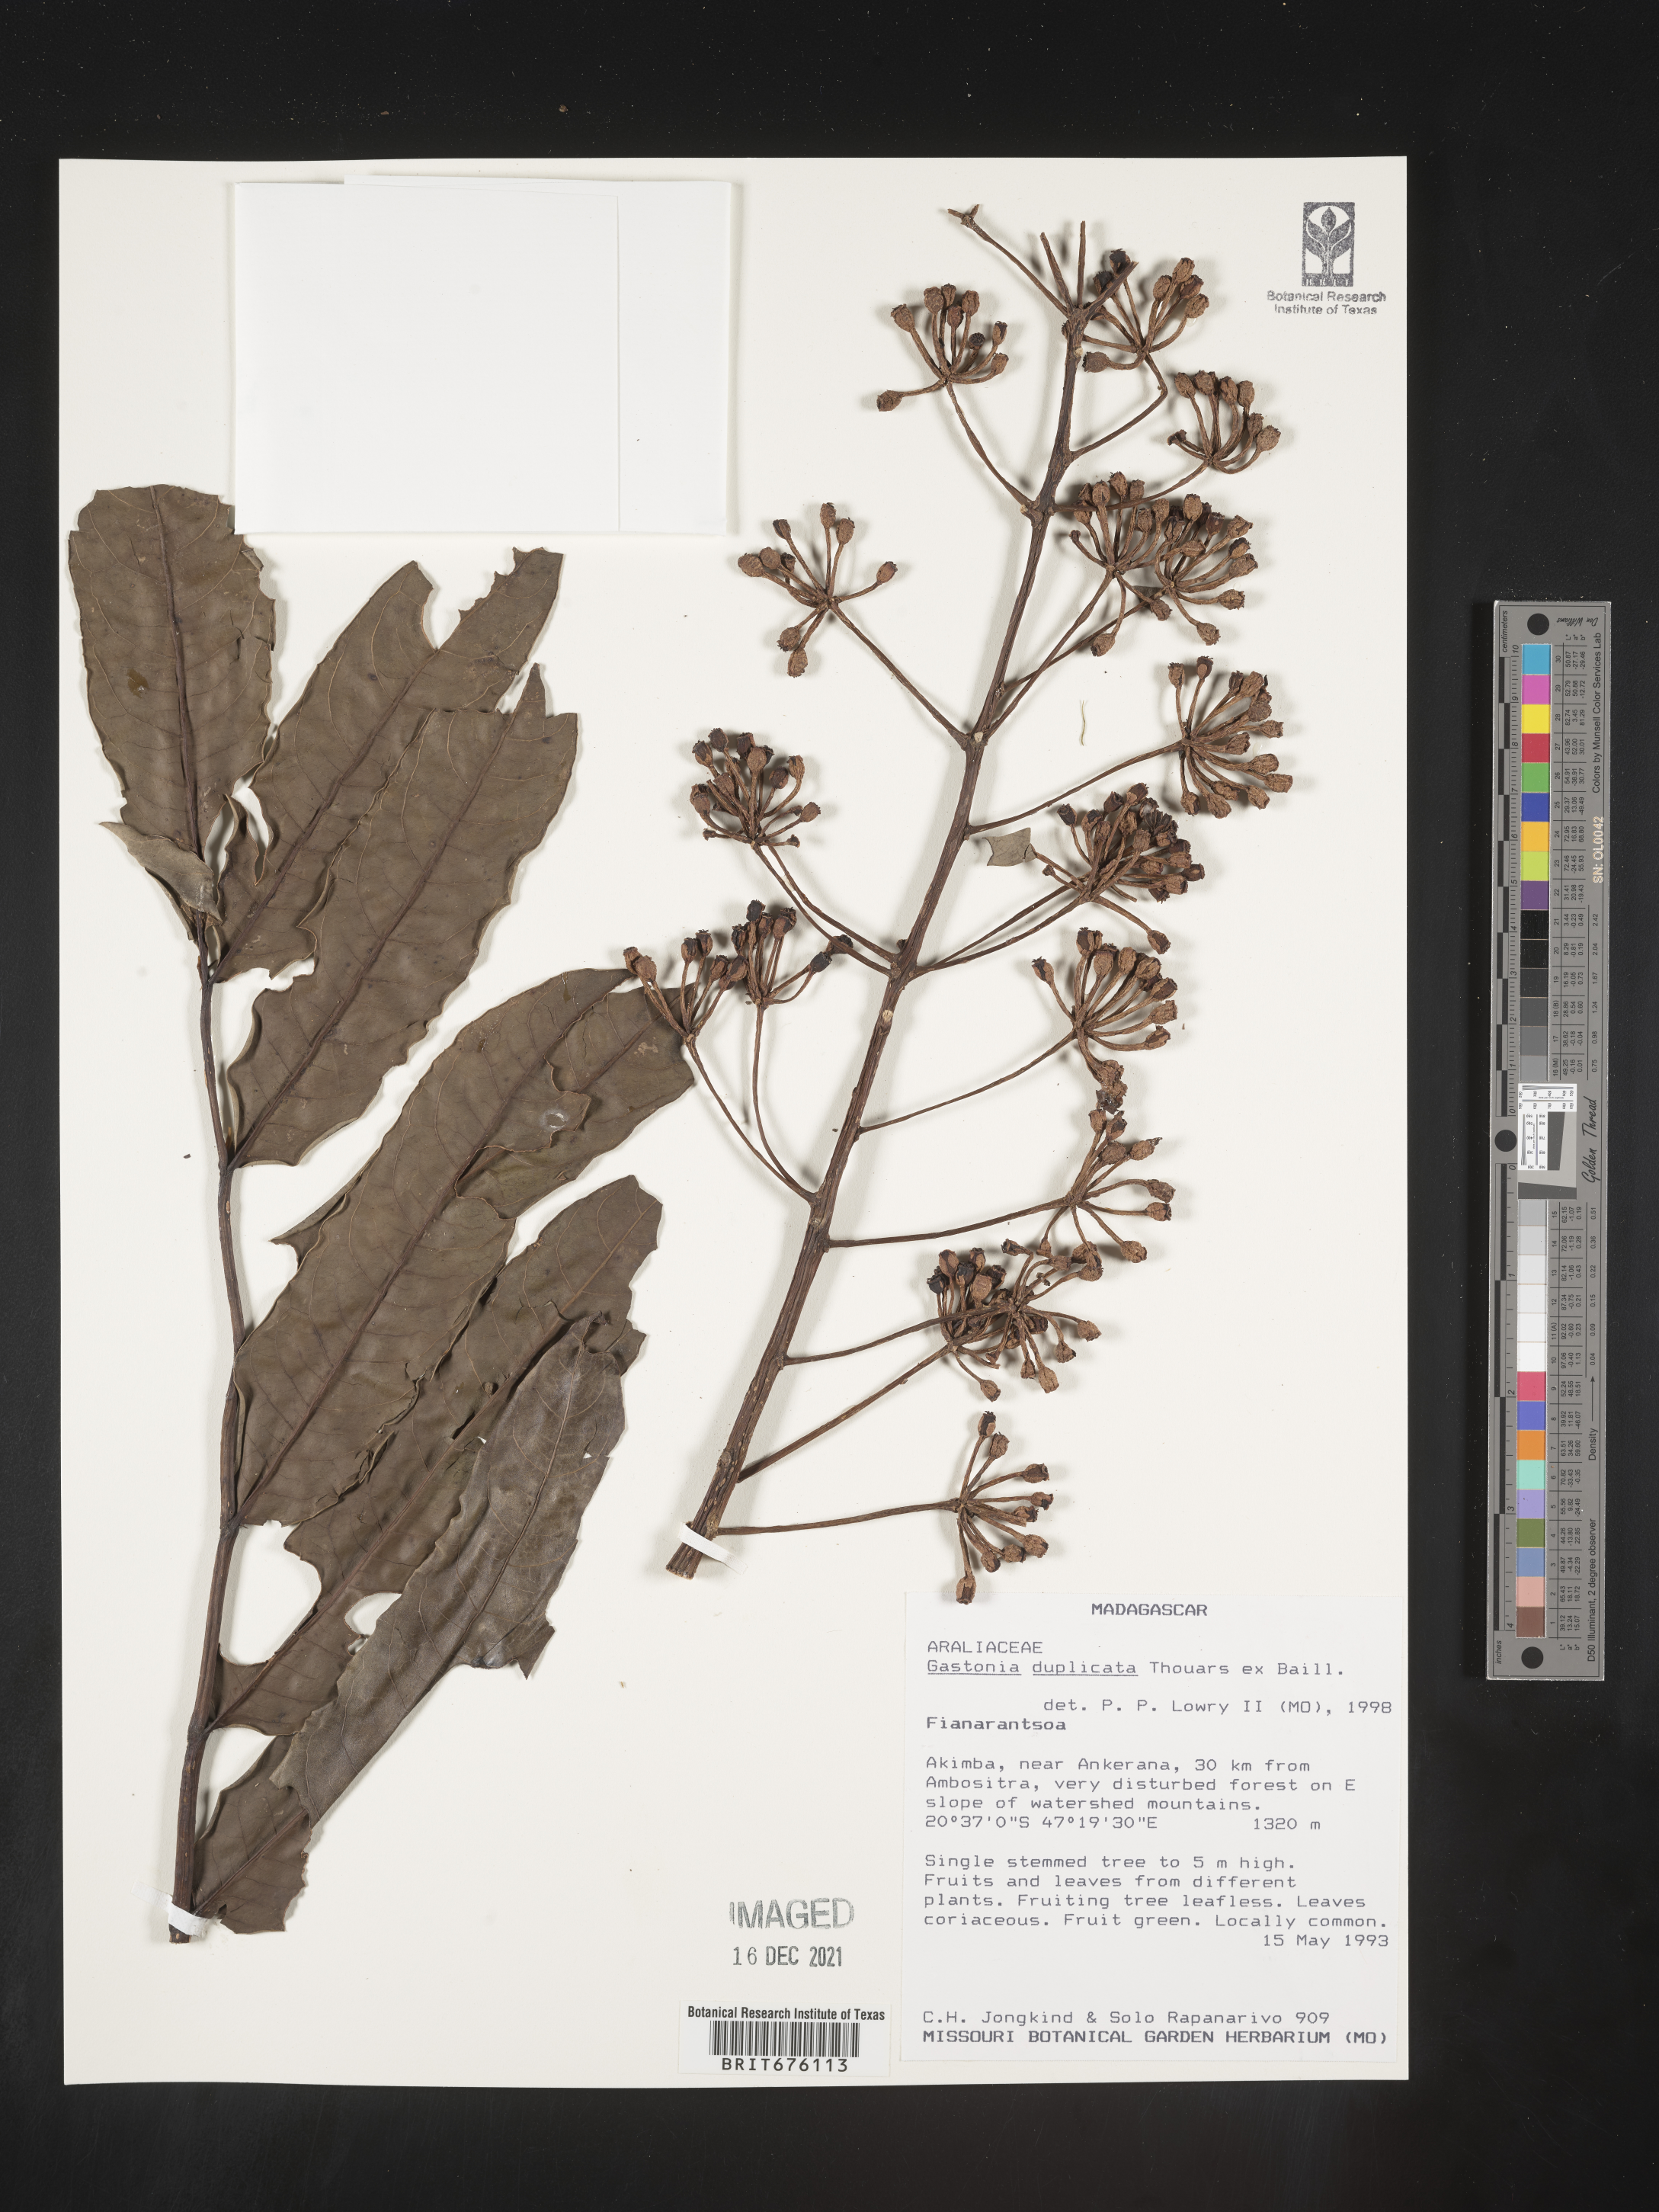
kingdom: Animalia
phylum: Chordata
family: Ankylosauridae
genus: Gastonia
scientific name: Gastonia
